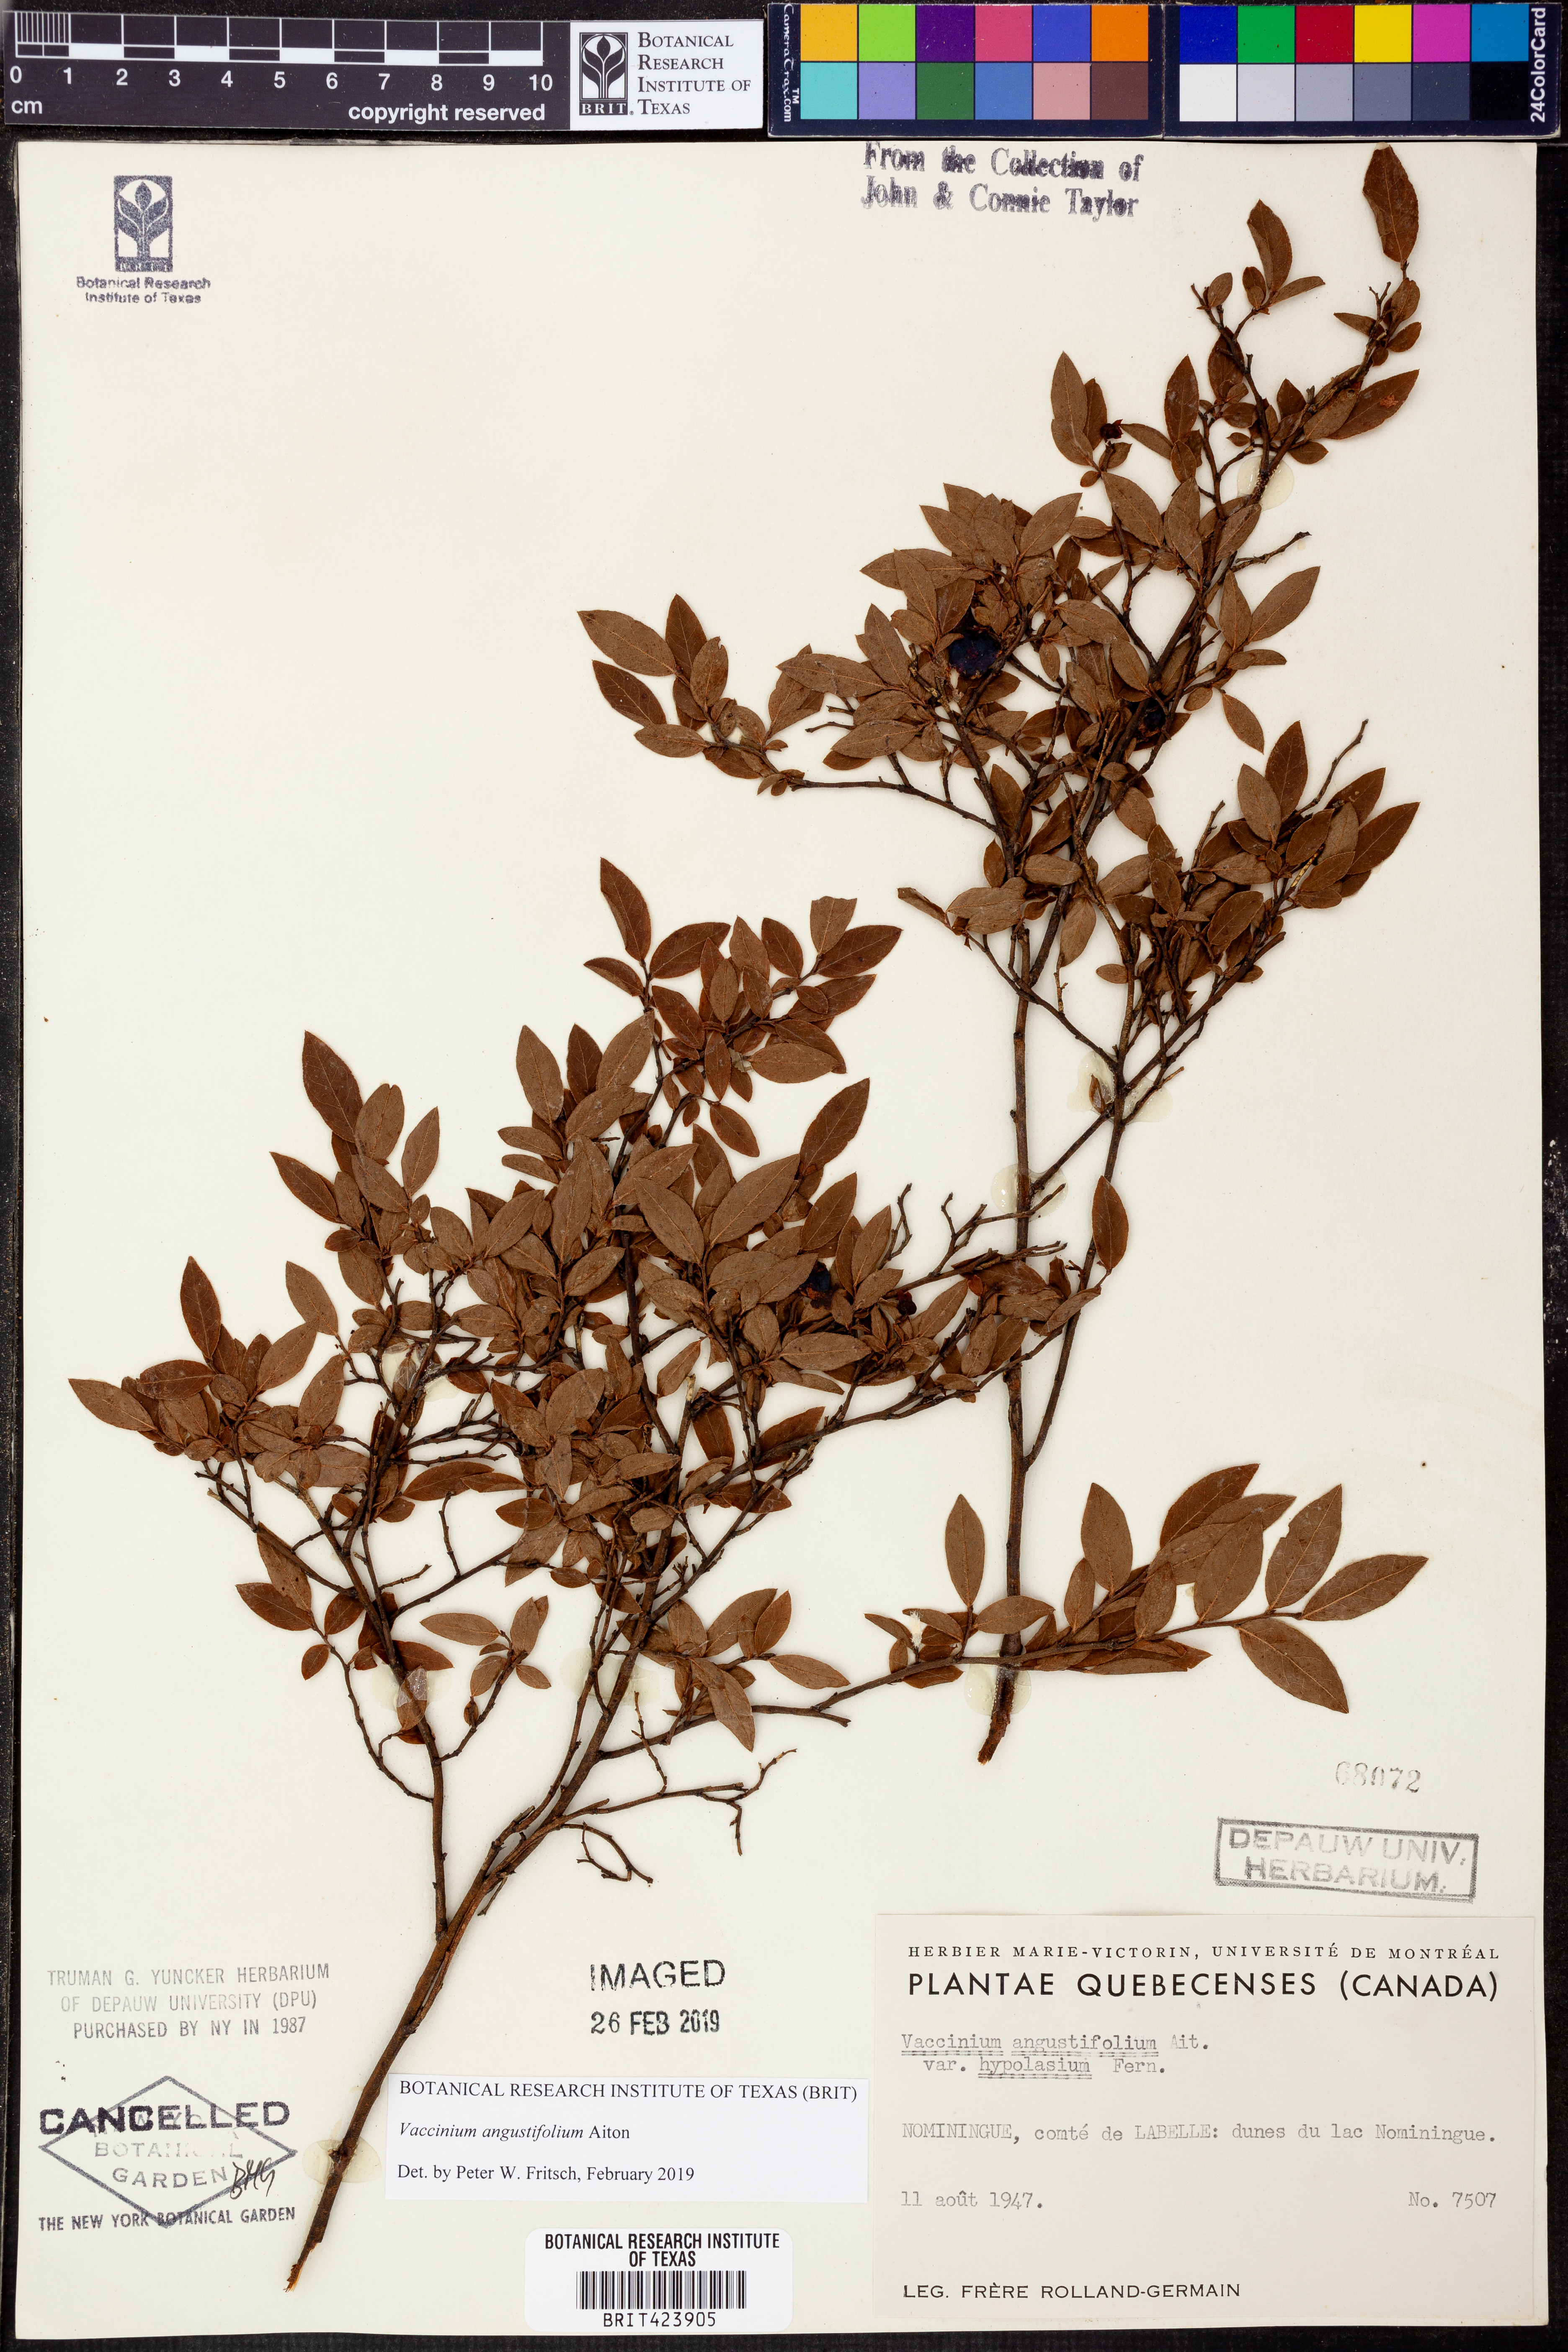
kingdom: Plantae
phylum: Tracheophyta
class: Magnoliopsida
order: Ericales
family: Ericaceae
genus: Vaccinium
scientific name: Vaccinium angustifolium
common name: Early lowbush blueberry
